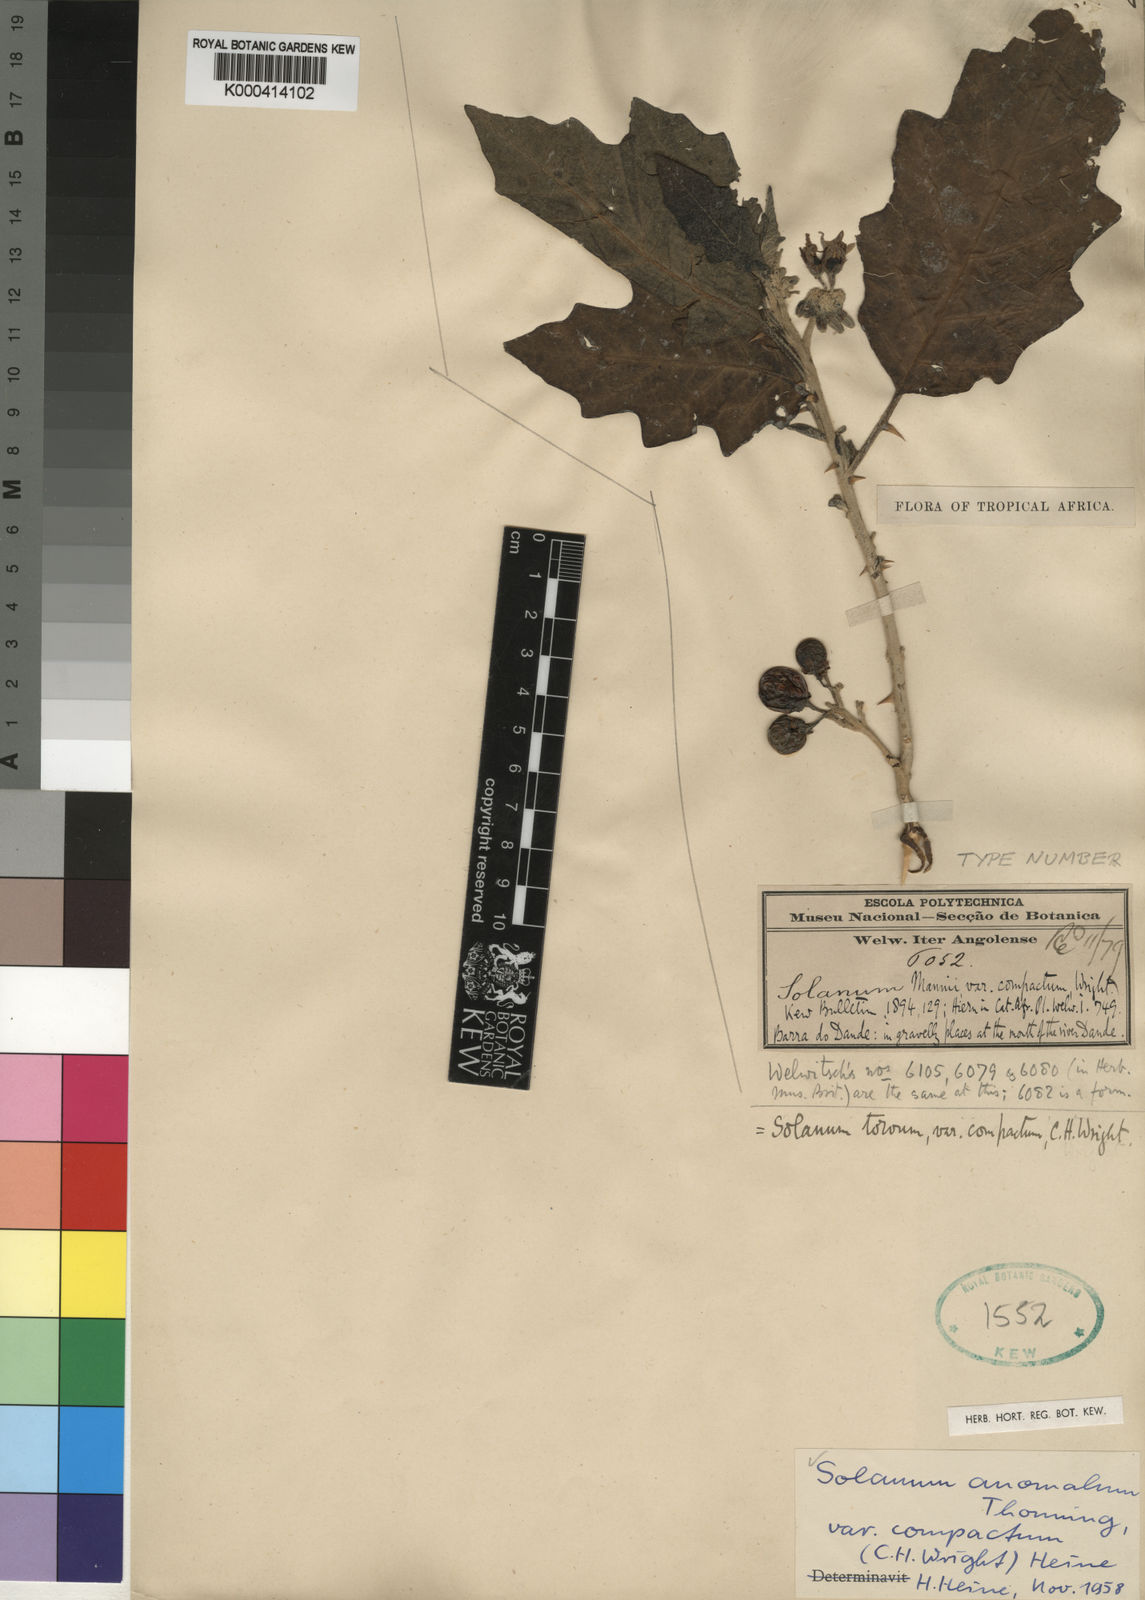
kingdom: Plantae
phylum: Tracheophyta
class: Magnoliopsida
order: Solanales
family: Solanaceae
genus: Solanum
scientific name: Solanum anomalum
